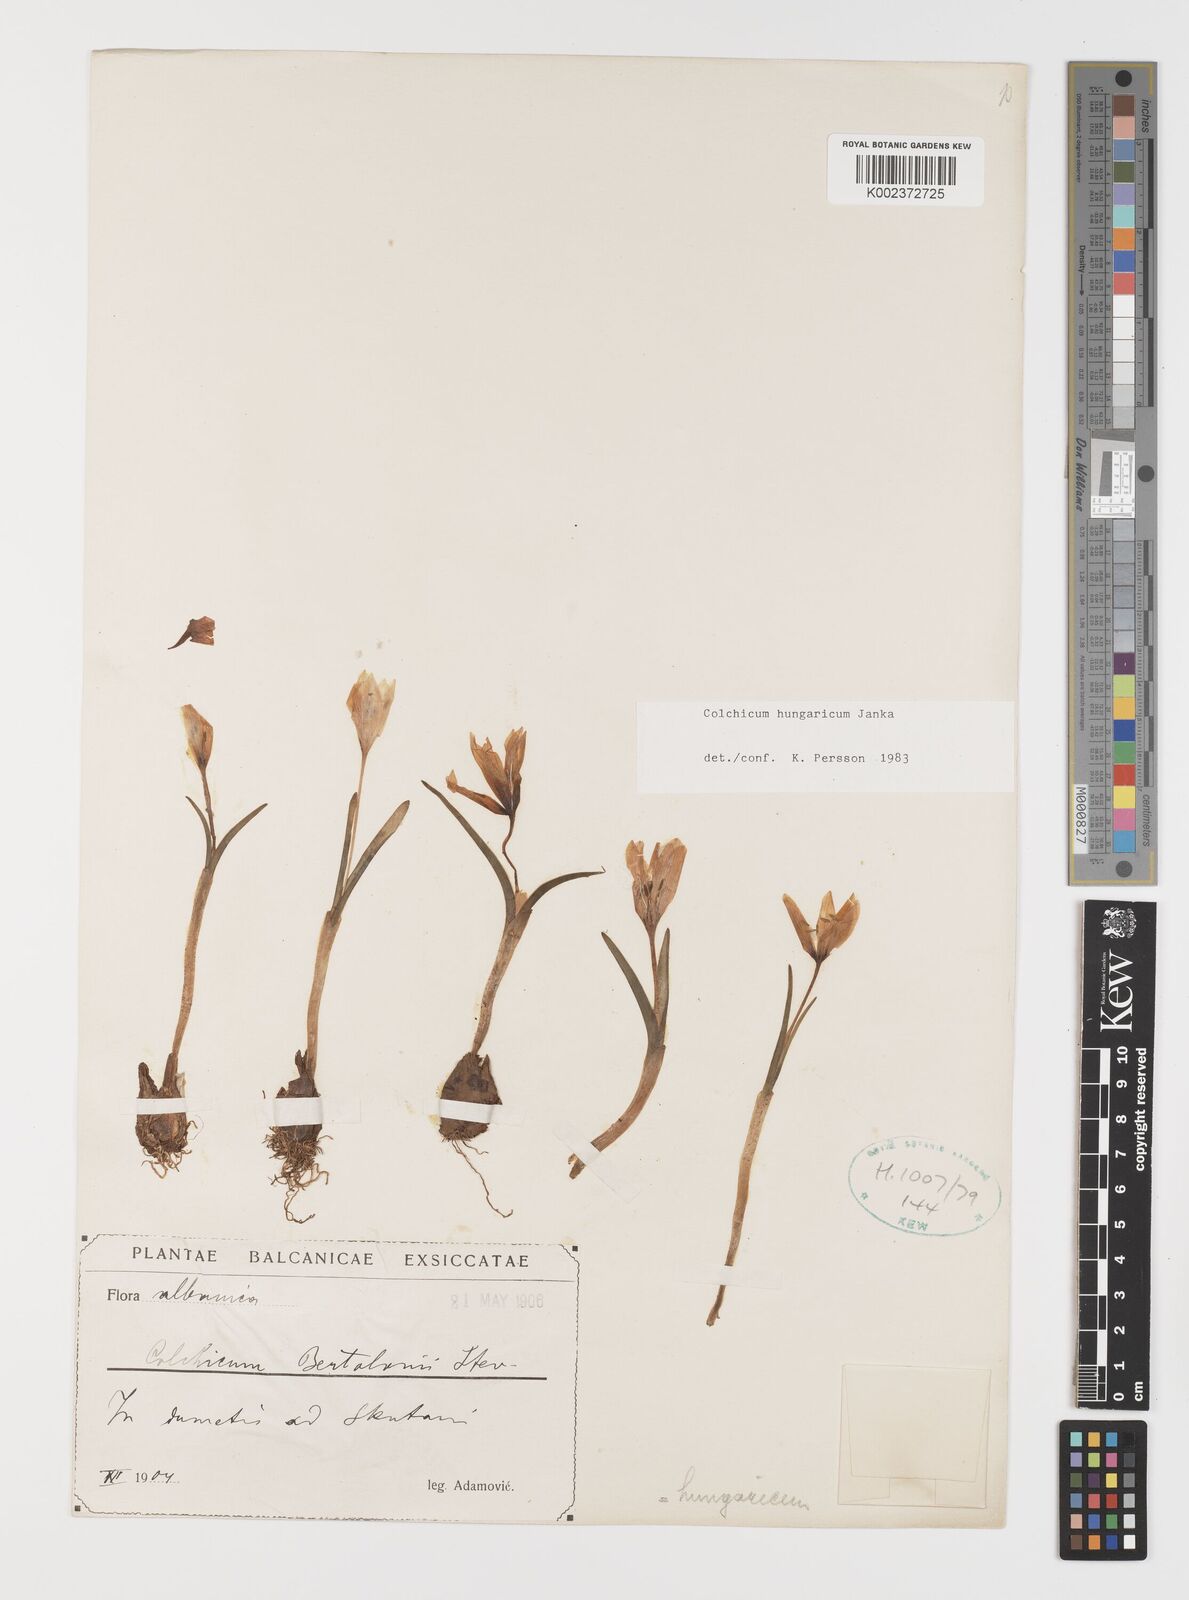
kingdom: Plantae
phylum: Tracheophyta
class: Liliopsida
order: Liliales
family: Colchicaceae
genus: Colchicum
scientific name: Colchicum hungaricum
